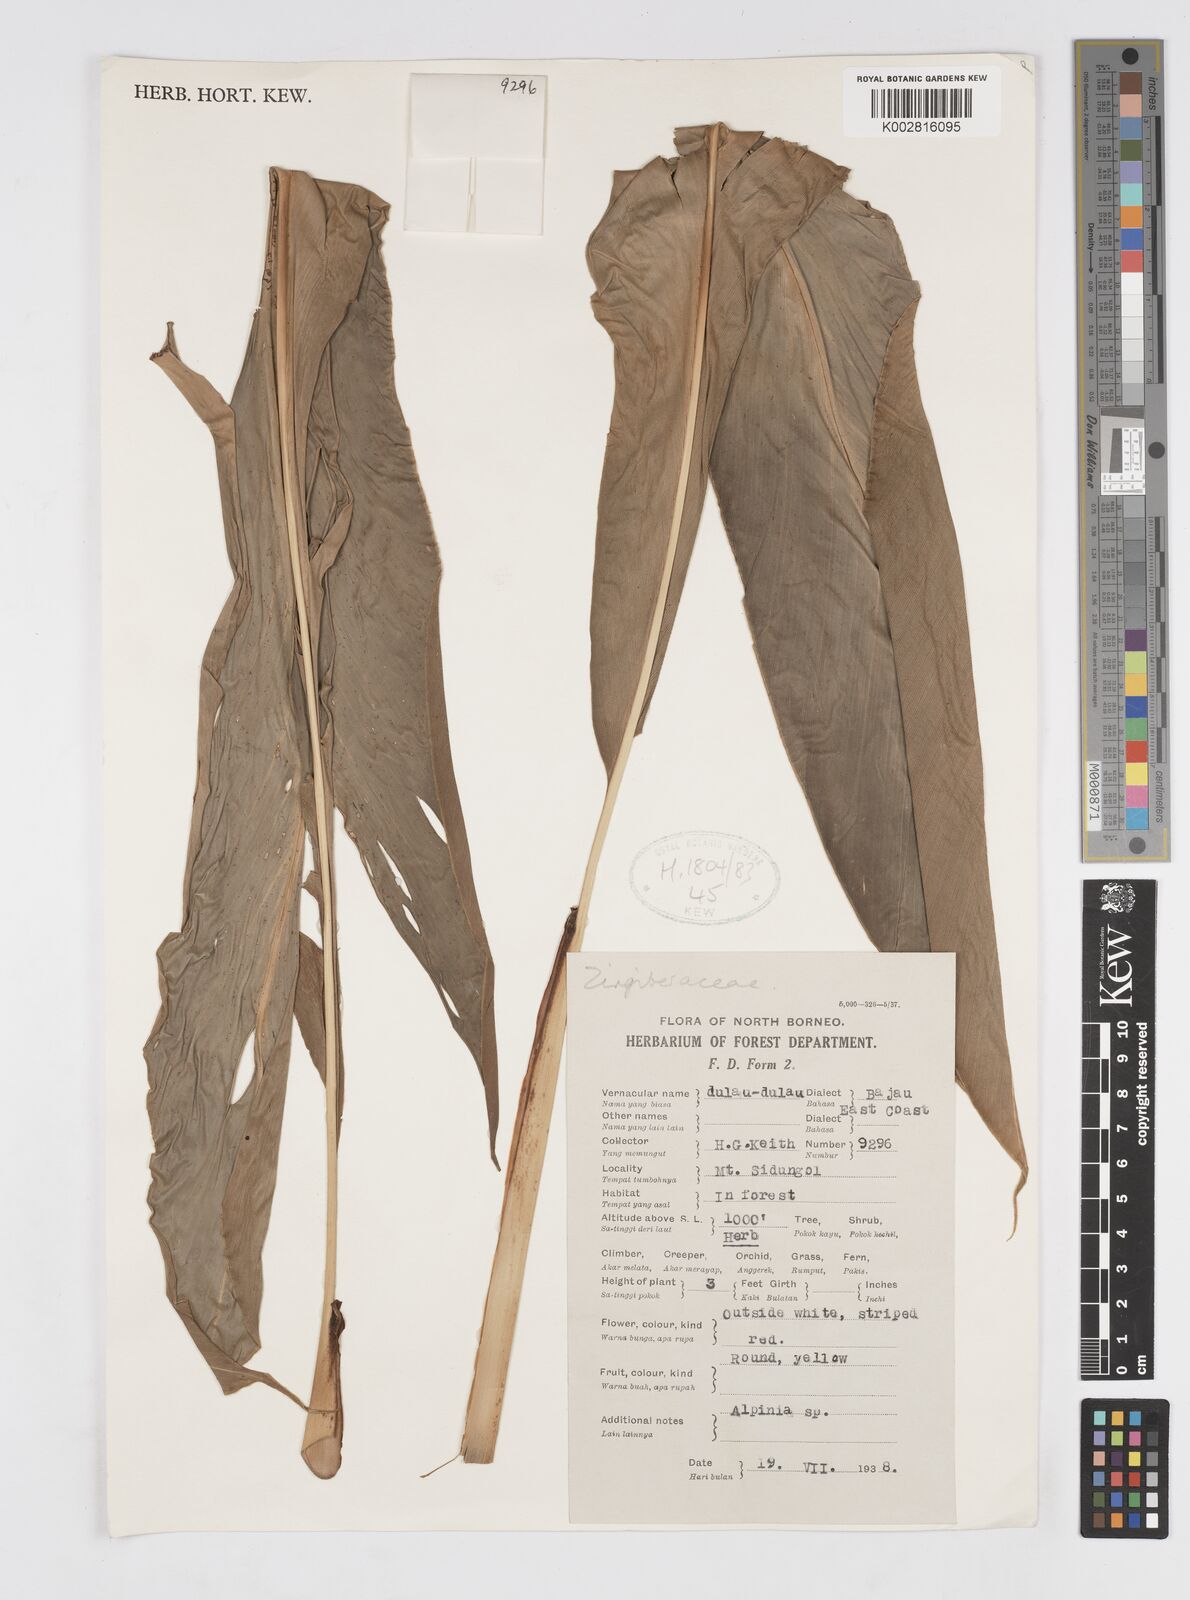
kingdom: Plantae
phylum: Tracheophyta
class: Liliopsida
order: Zingiberales
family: Zingiberaceae
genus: Alpinia
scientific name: Alpinia
